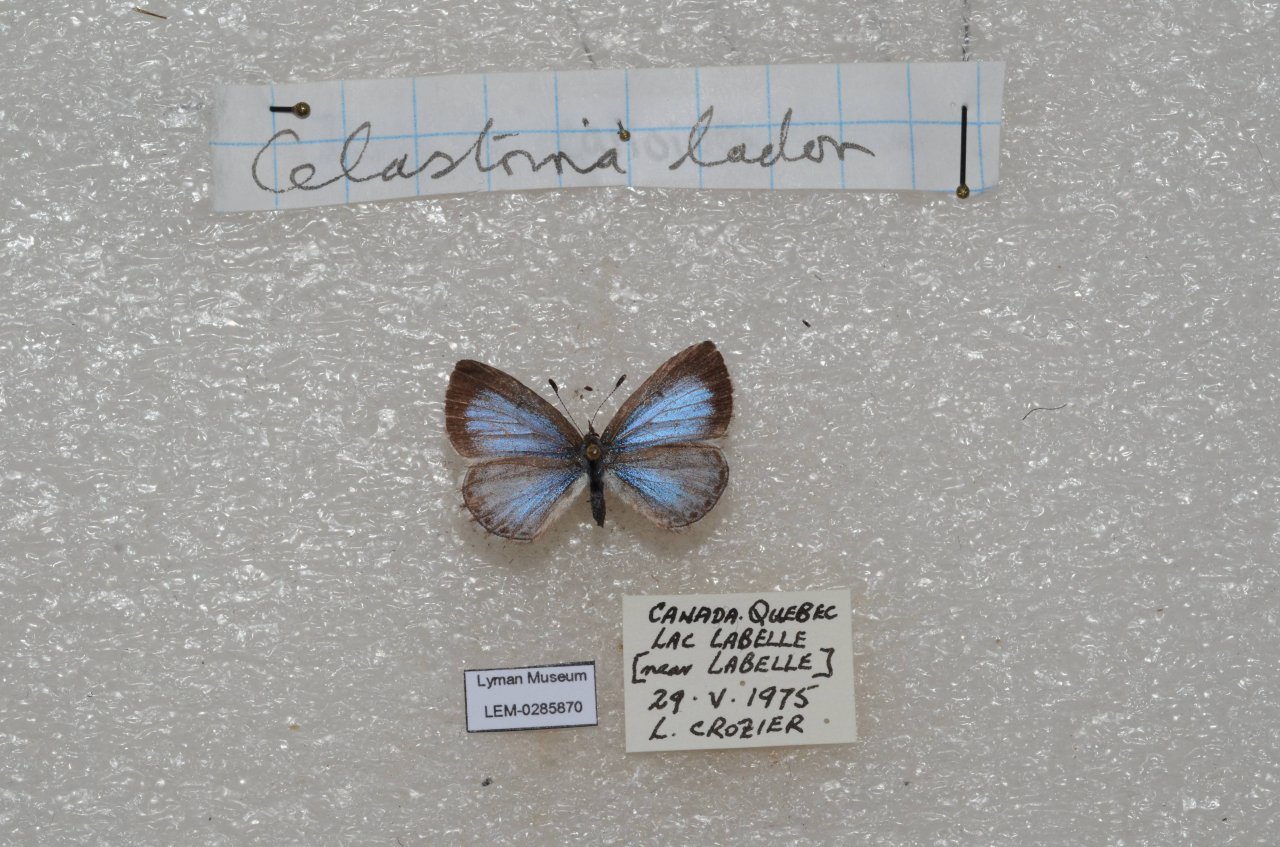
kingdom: Animalia
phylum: Arthropoda
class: Insecta
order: Lepidoptera
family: Lycaenidae
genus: Celastrina
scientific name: Celastrina lucia
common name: Northern Spring Azure
